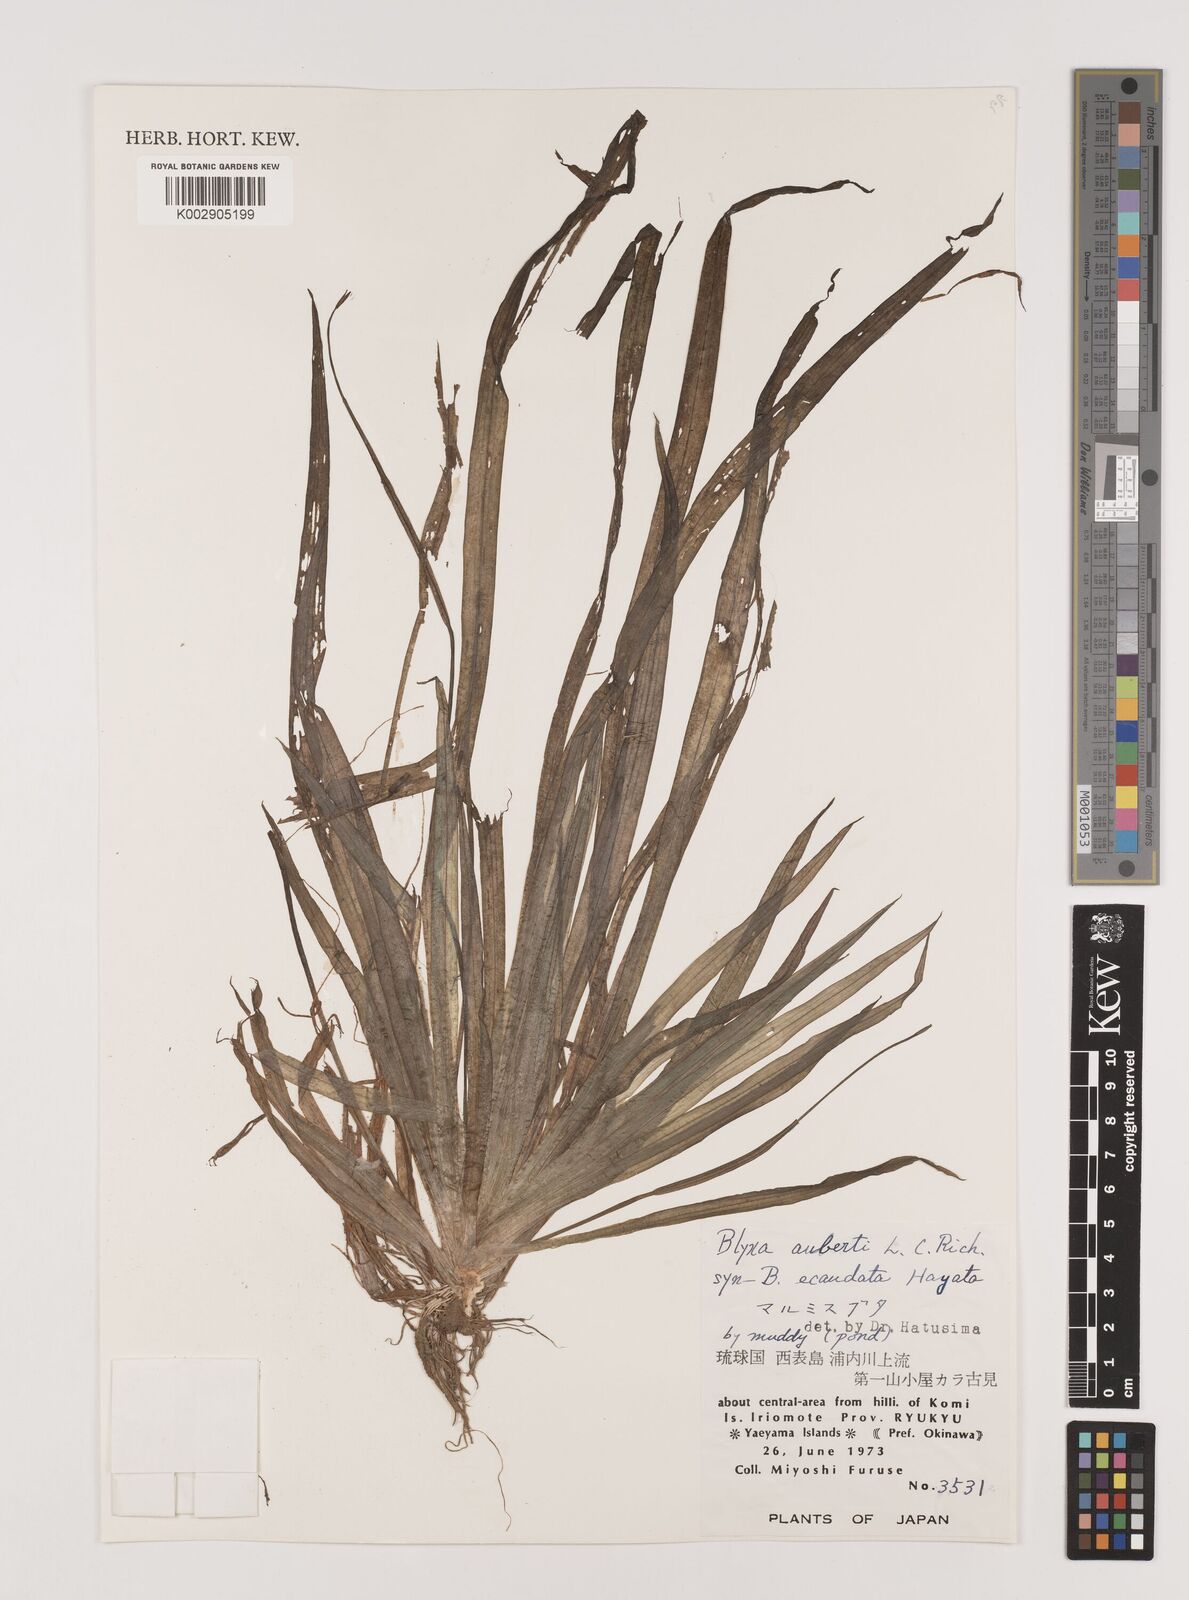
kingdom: Plantae
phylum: Tracheophyta
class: Liliopsida
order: Alismatales
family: Hydrocharitaceae
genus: Blyxa
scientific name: Blyxa aubertii
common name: Roundfruit blyxa
